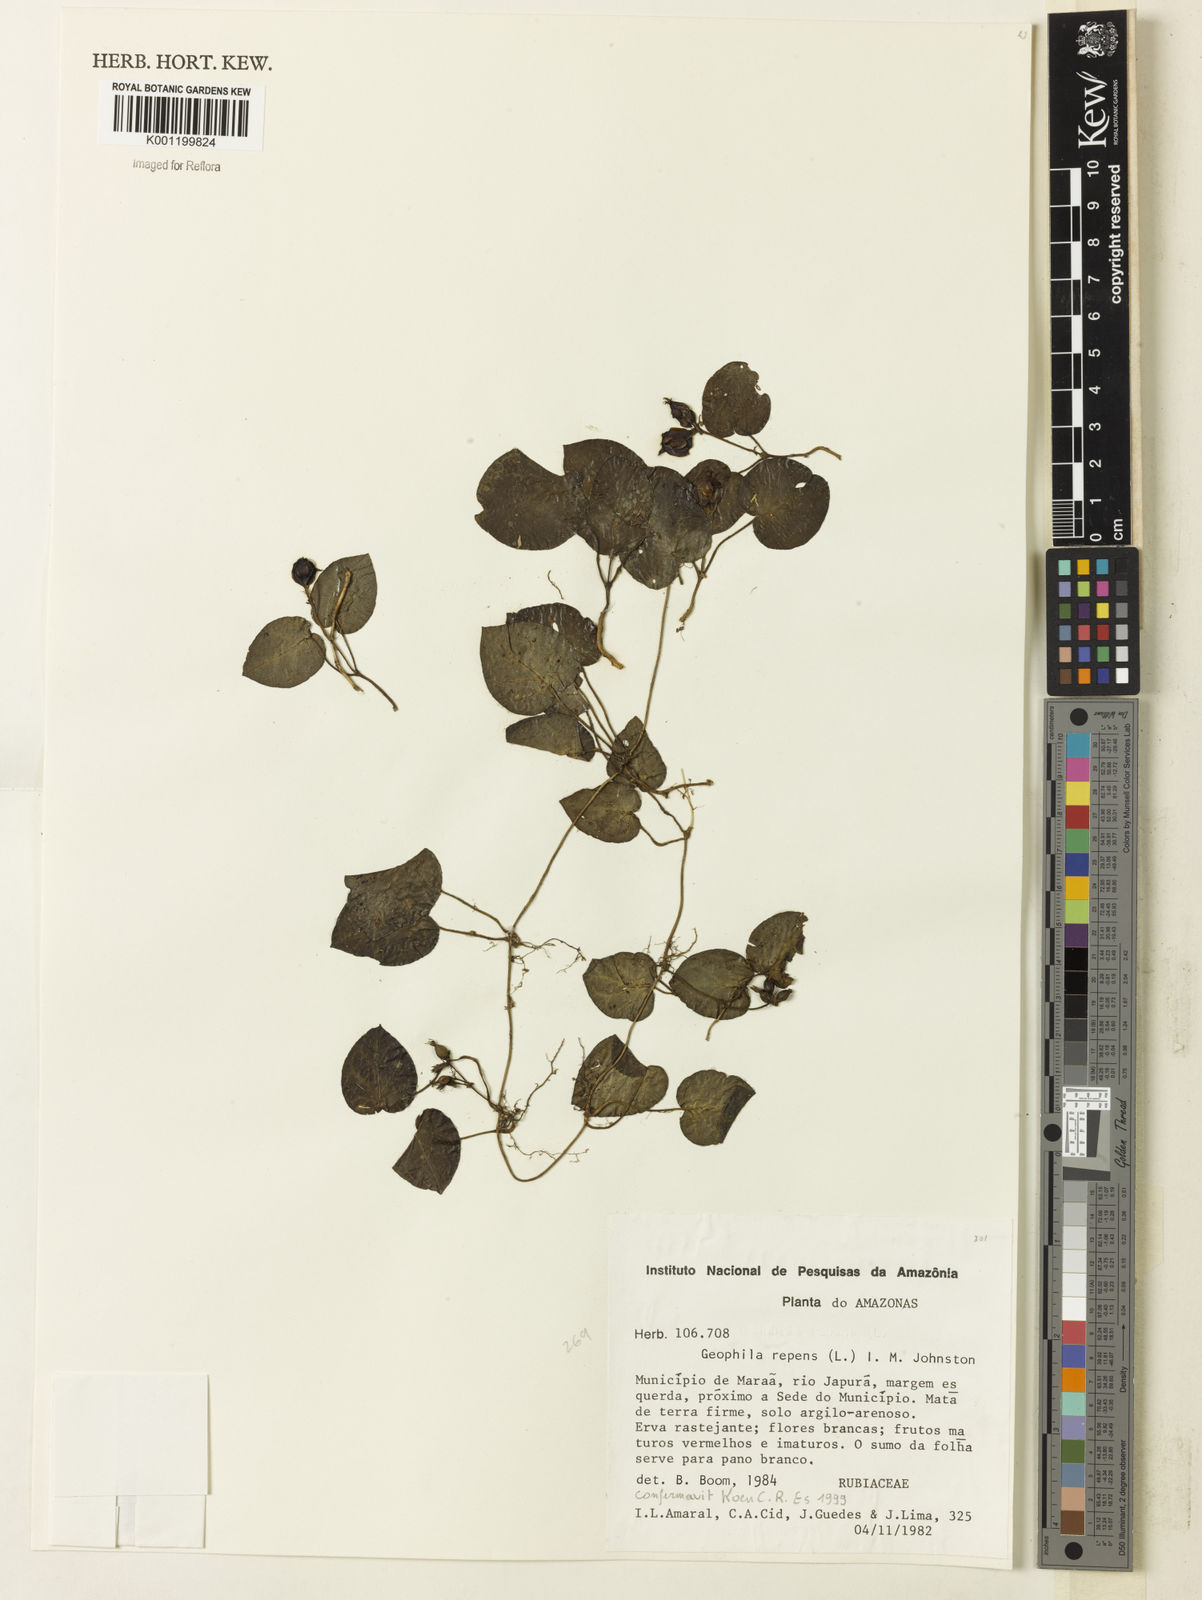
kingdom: Plantae
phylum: Tracheophyta
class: Magnoliopsida
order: Gentianales
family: Rubiaceae
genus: Geophila
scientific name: Geophila repens
